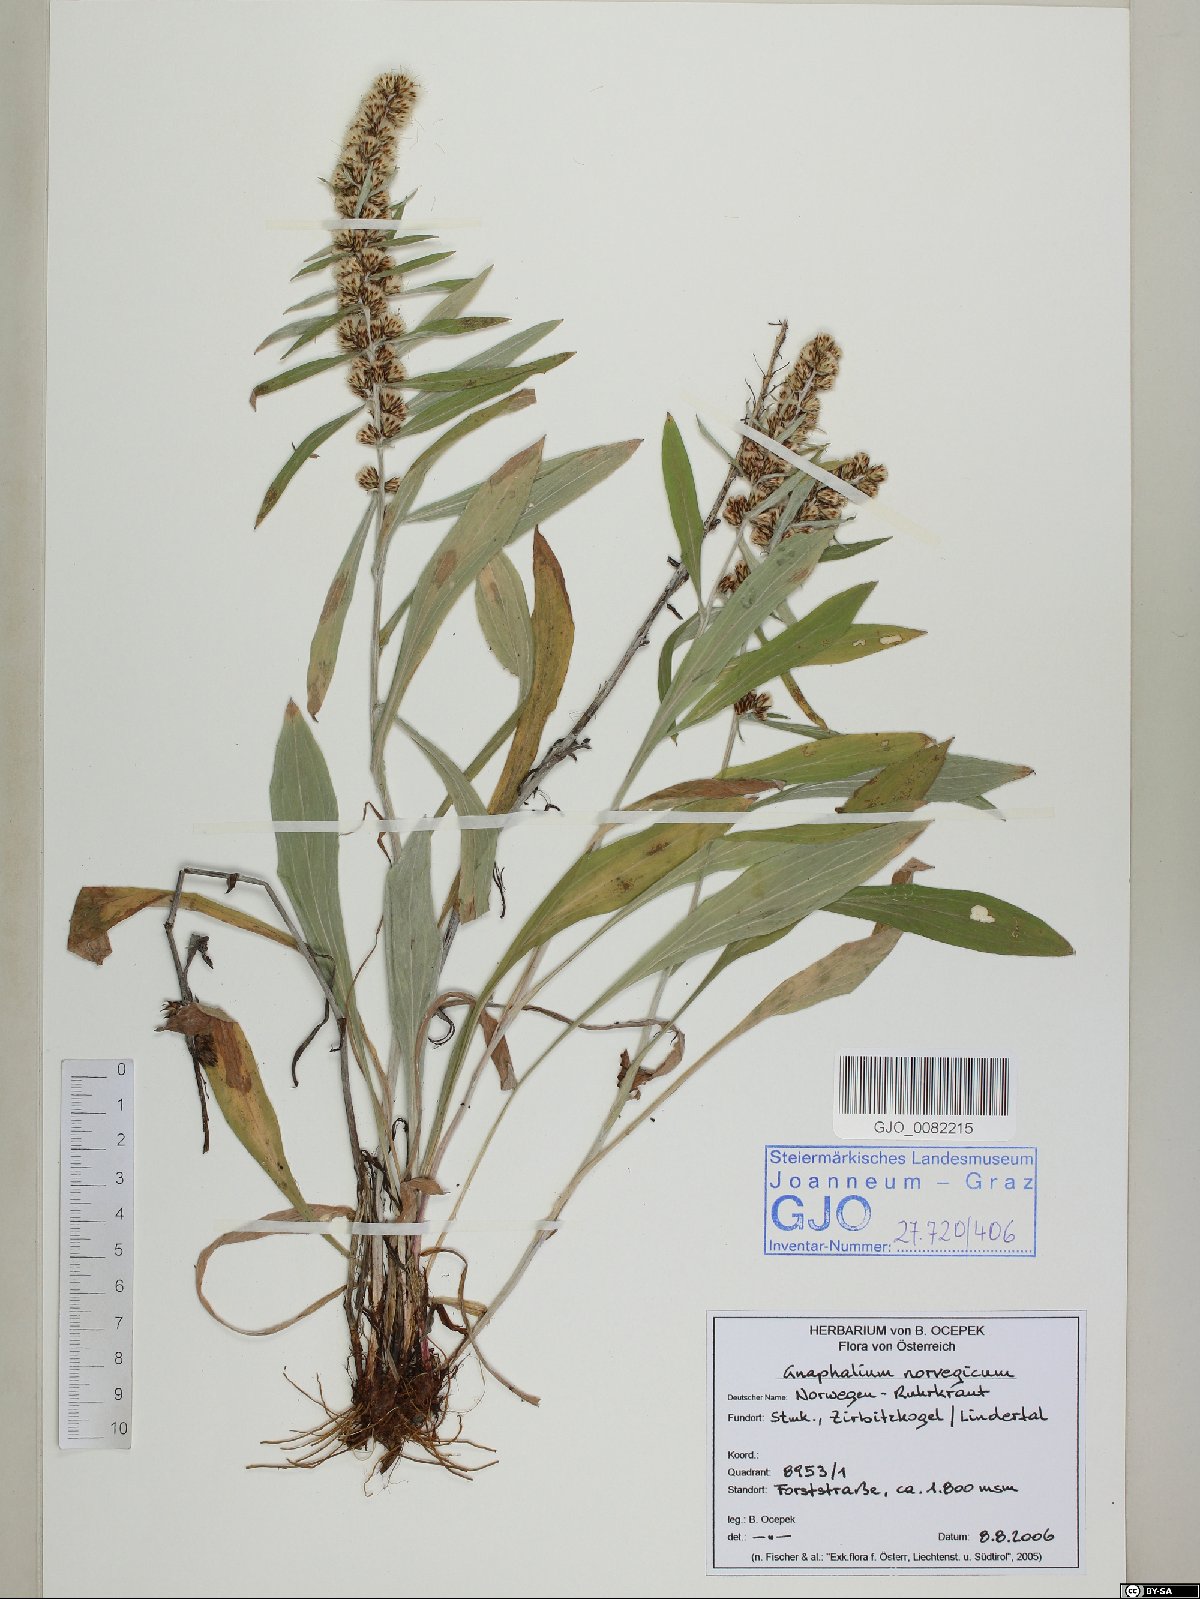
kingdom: Plantae
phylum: Tracheophyta
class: Magnoliopsida
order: Asterales
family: Asteraceae
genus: Omalotheca
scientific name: Omalotheca norvegica
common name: Norwegian arctic-cudweed
